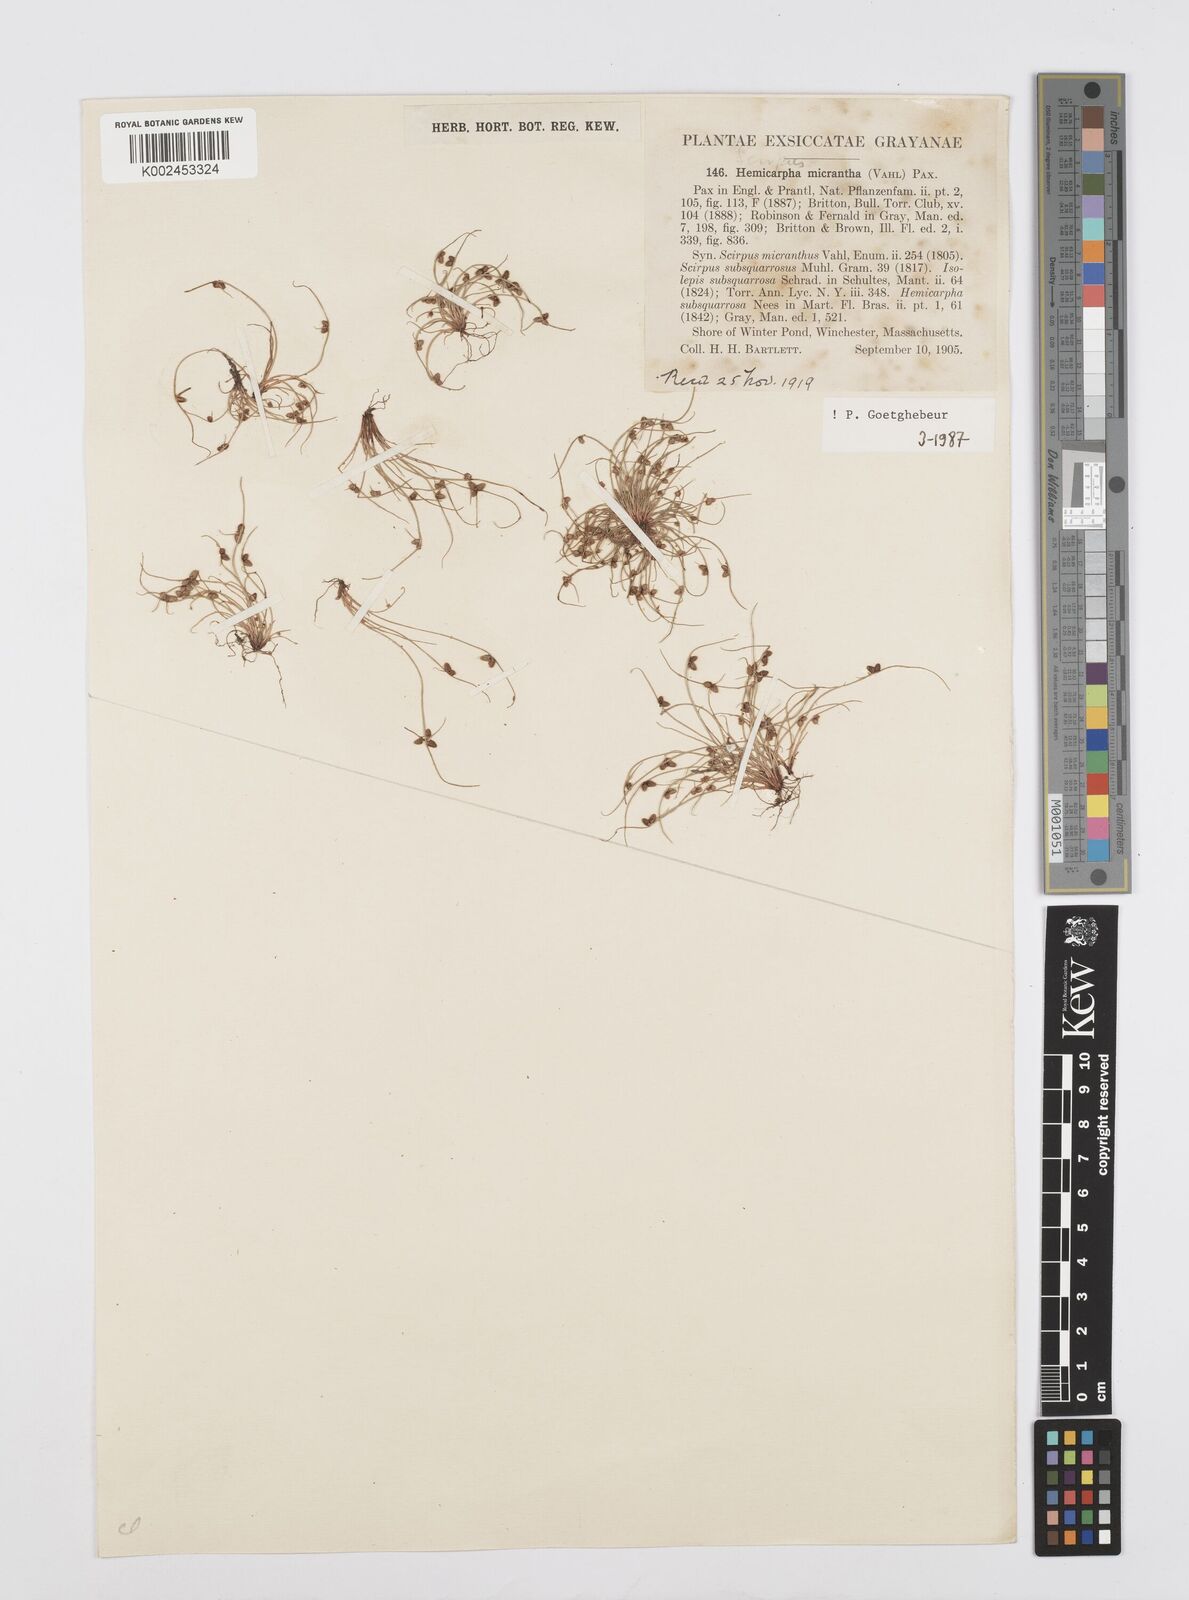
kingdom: Plantae
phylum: Tracheophyta
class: Liliopsida
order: Poales
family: Cyperaceae
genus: Cyperus
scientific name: Cyperus dentatus
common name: Dentate umbrella sedge
